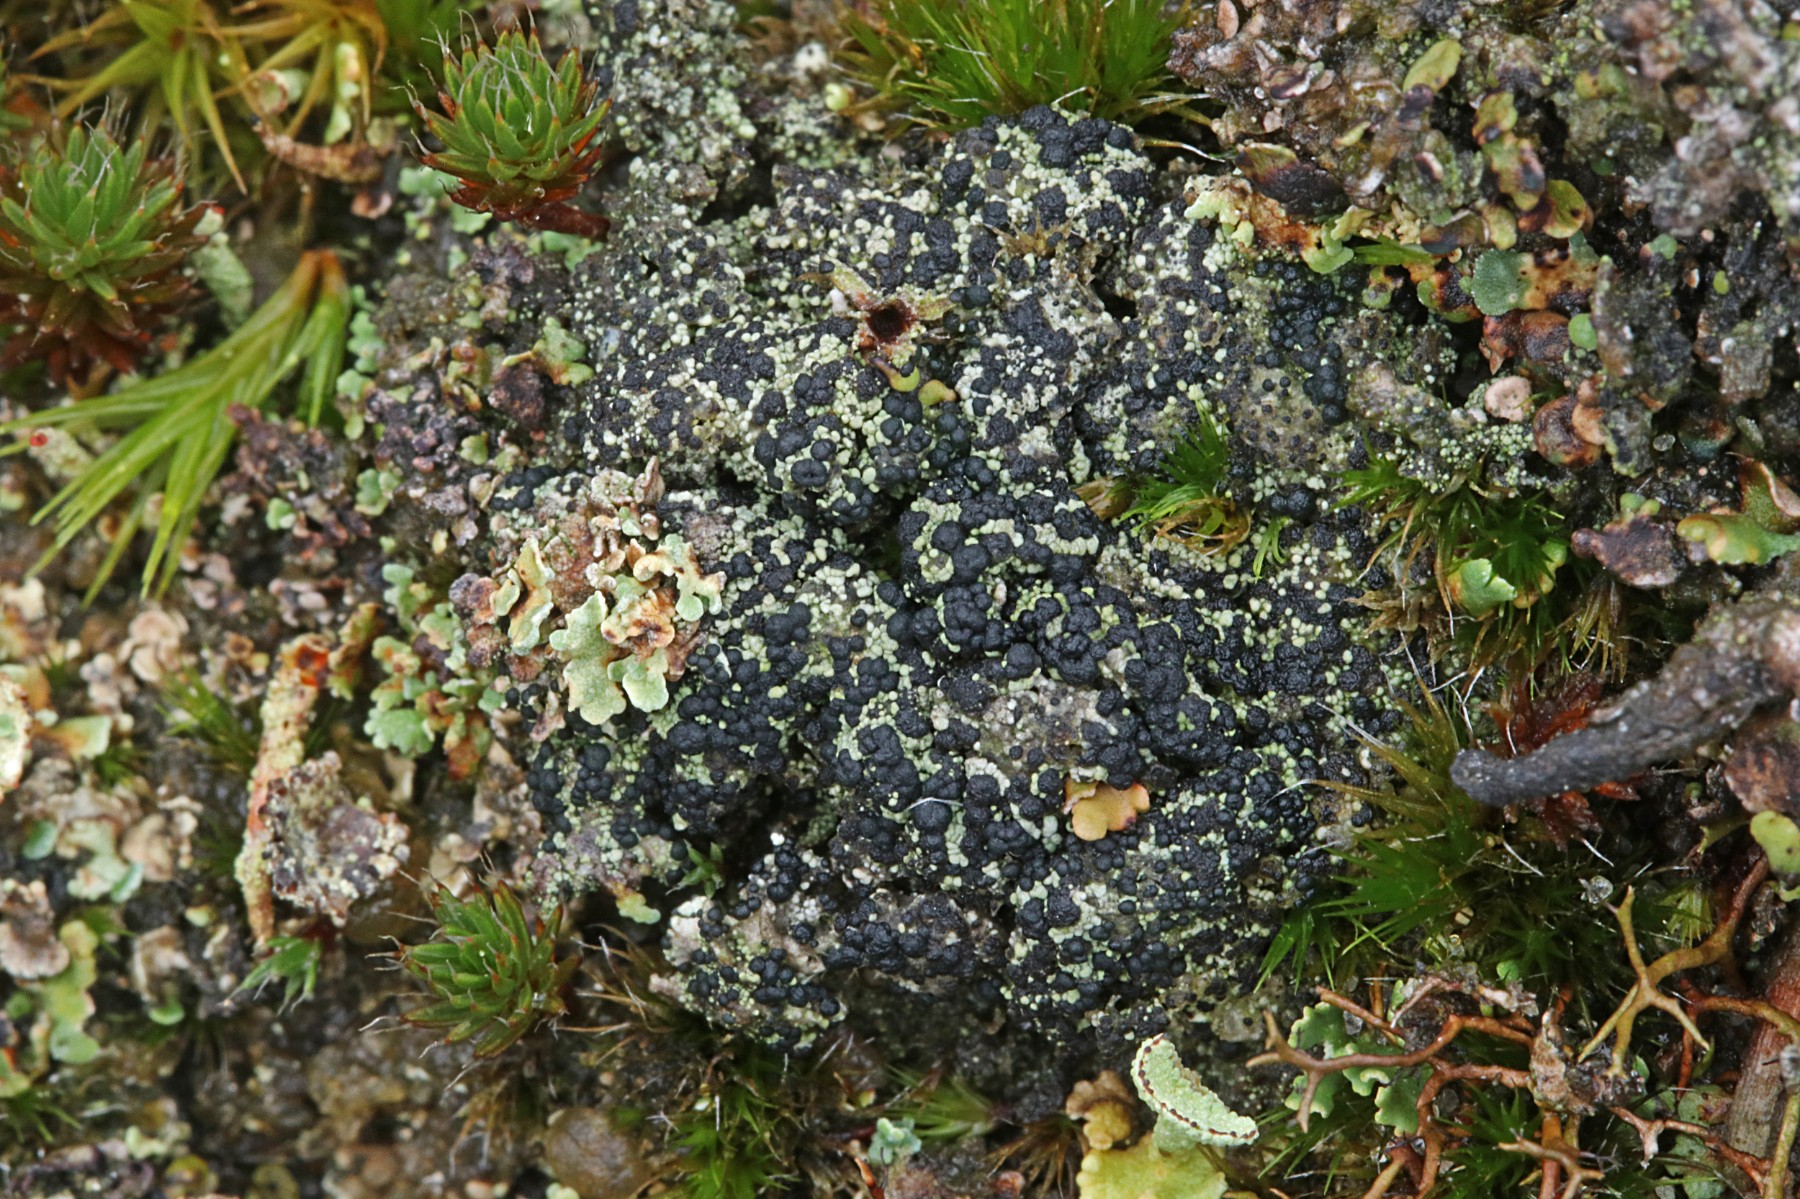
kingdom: Fungi
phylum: Ascomycota
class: Lecanoromycetes
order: Lecanorales
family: Byssolomataceae
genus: Micarea
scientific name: Micarea lignaria
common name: tørve-knaplav
